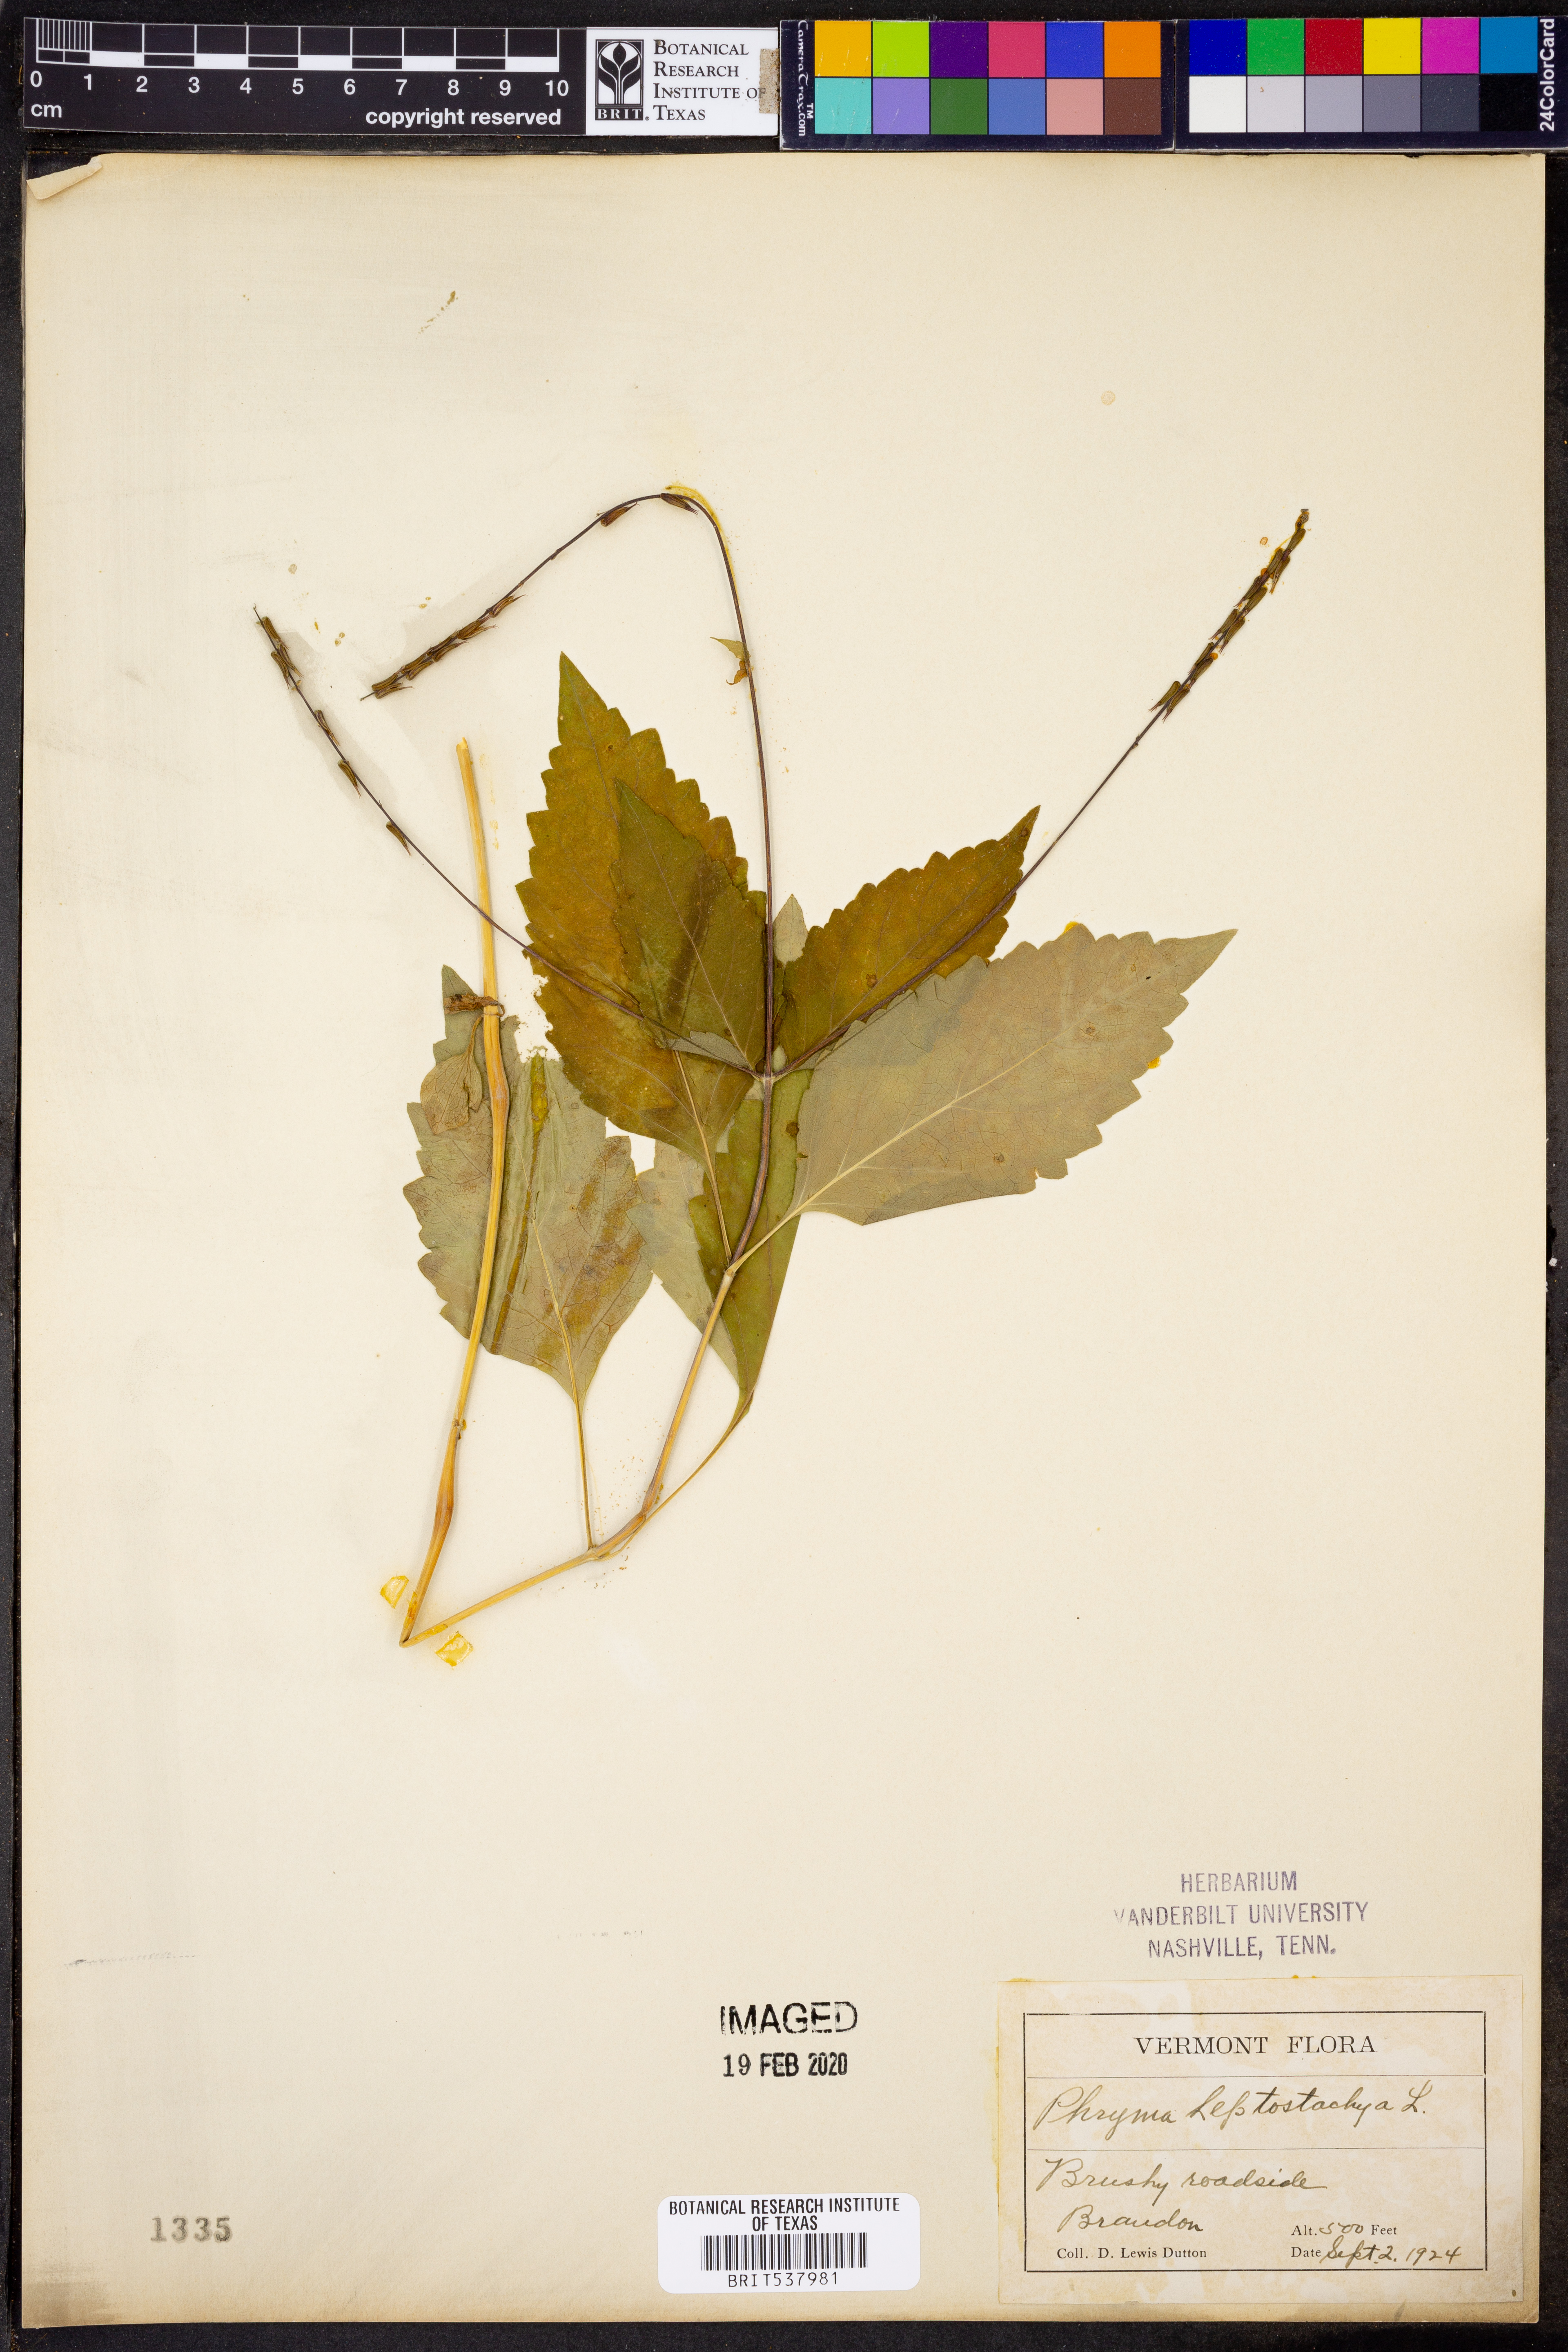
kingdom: Plantae
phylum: Tracheophyta
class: Magnoliopsida
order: Lamiales
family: Phrymaceae
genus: Phryma
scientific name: Phryma leptostachya
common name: American lopseed
